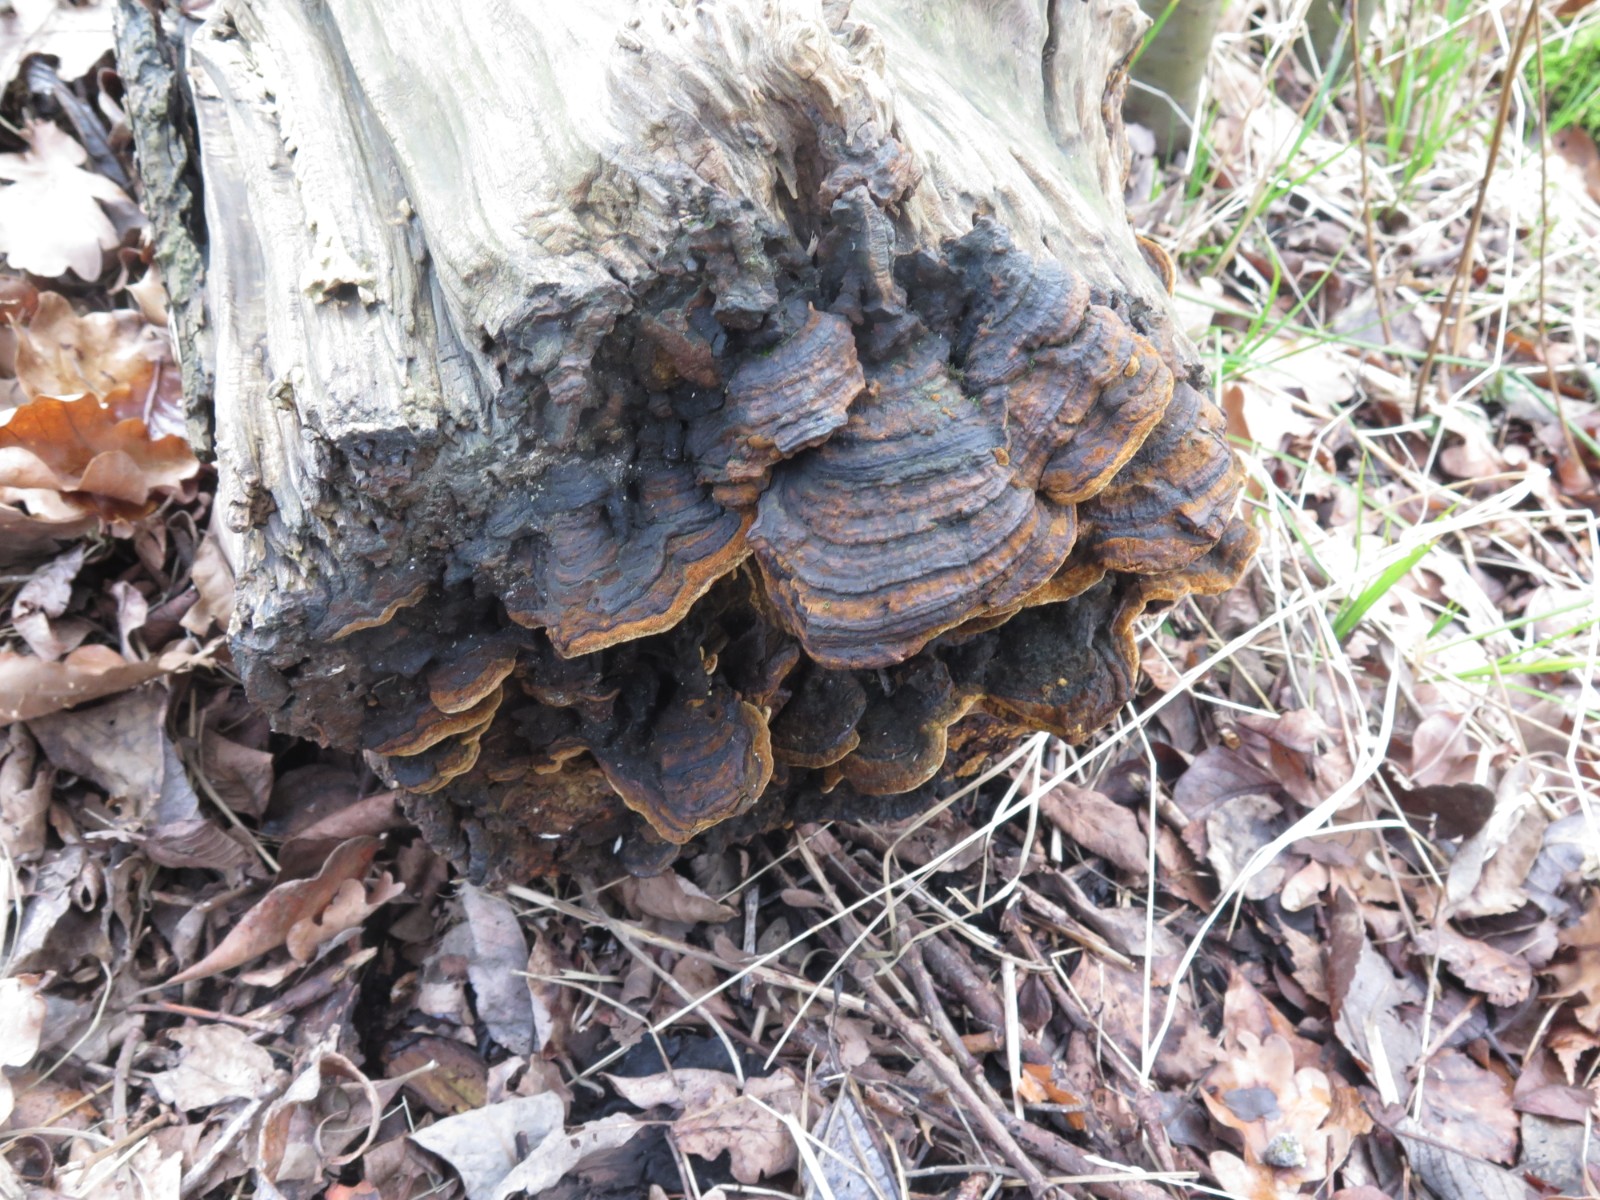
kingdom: Fungi
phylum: Basidiomycota
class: Agaricomycetes
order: Hymenochaetales
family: Hymenochaetaceae
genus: Phellinopsis
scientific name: Phellinopsis conchata
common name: pile-ildporesvamp
